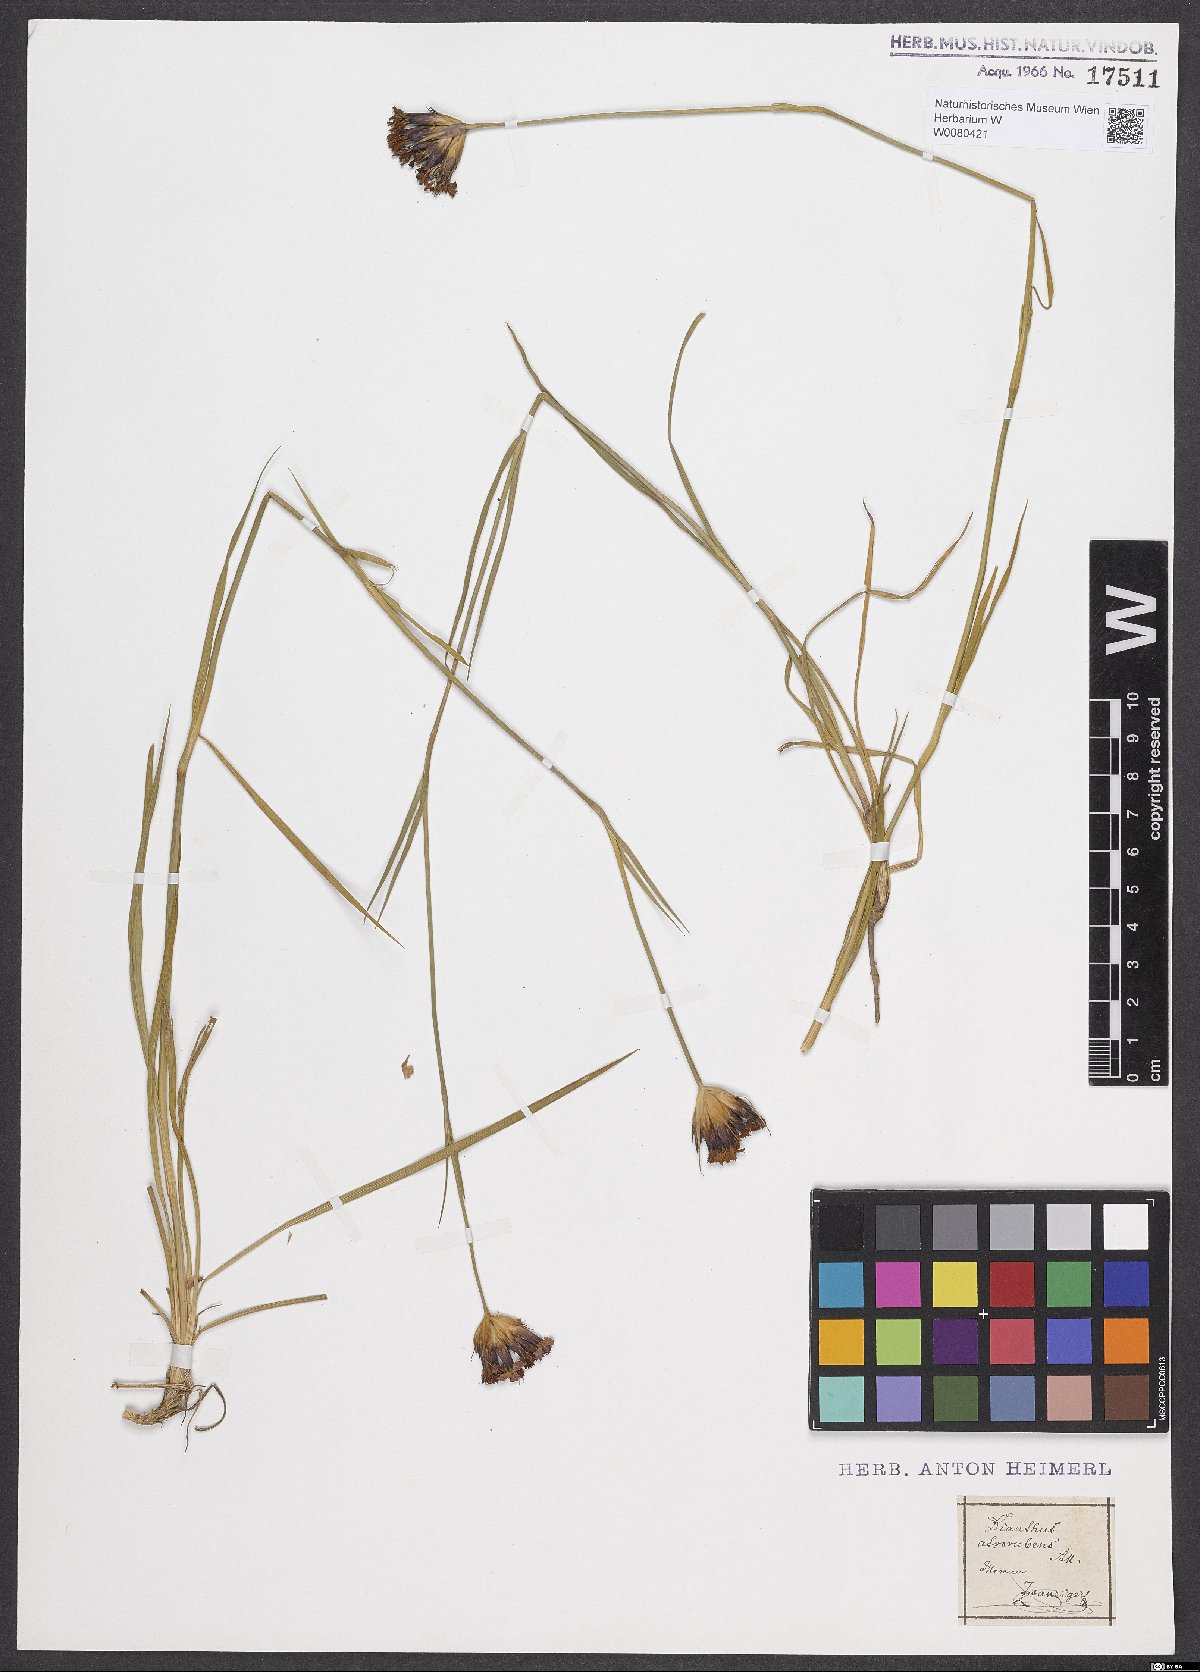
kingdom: Plantae
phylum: Tracheophyta
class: Magnoliopsida
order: Caryophyllales
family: Caryophyllaceae
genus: Dianthus
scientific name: Dianthus carthusianorum
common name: Carthusian pink
